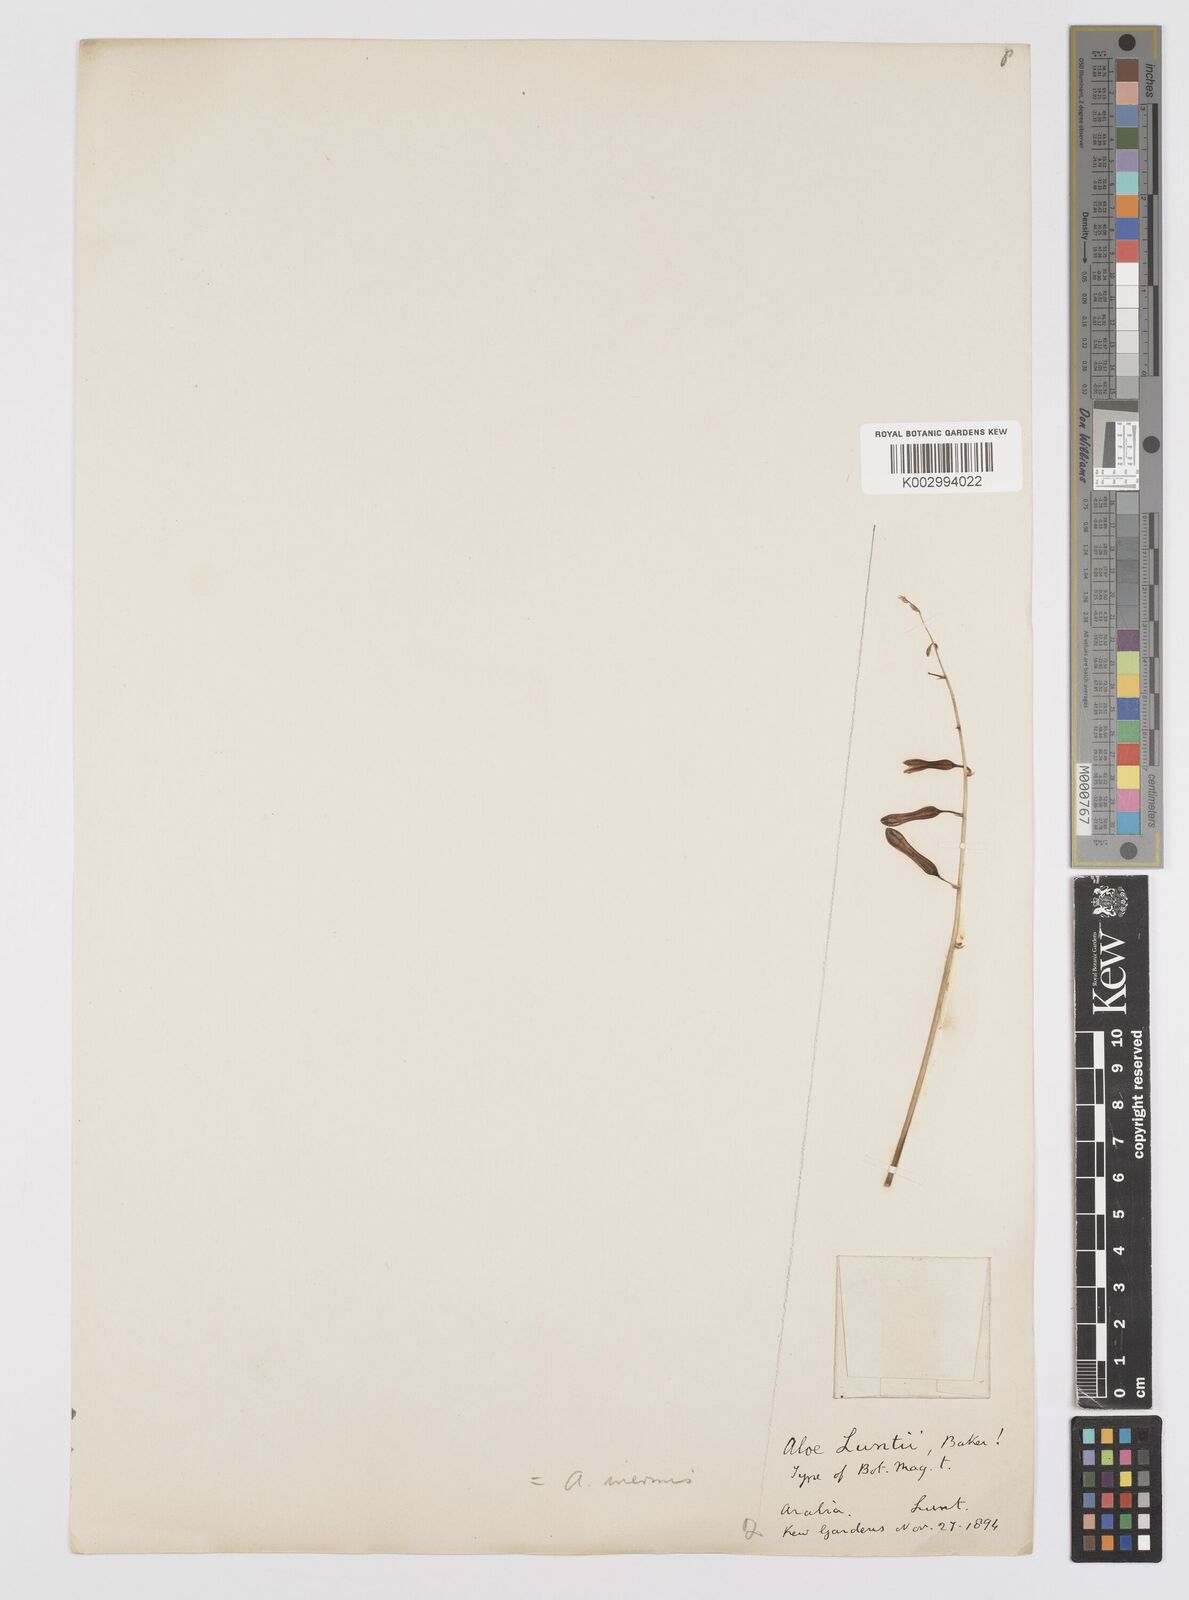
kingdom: Plantae
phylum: Tracheophyta
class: Liliopsida
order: Asparagales
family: Asphodelaceae
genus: Aloe
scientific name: Aloe inermis
